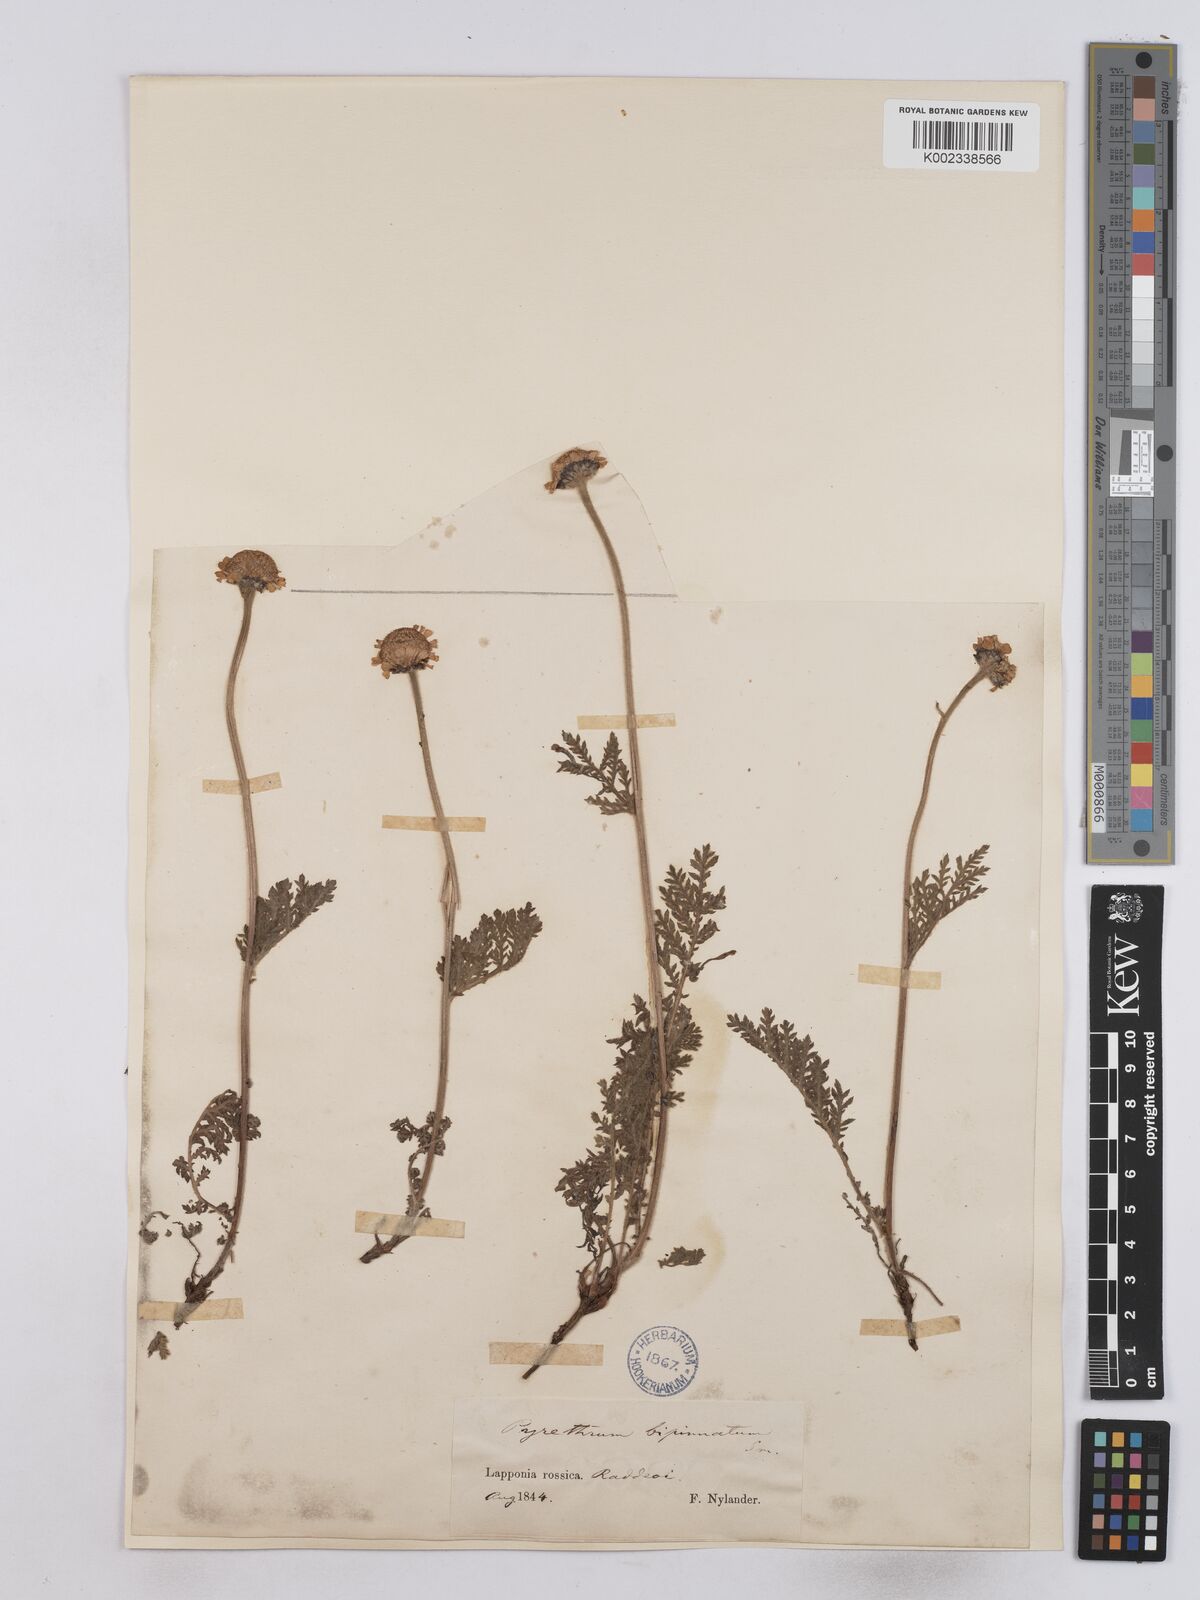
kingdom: Plantae
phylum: Tracheophyta
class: Magnoliopsida
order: Asterales
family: Asteraceae
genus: Tanacetum
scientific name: Tanacetum
